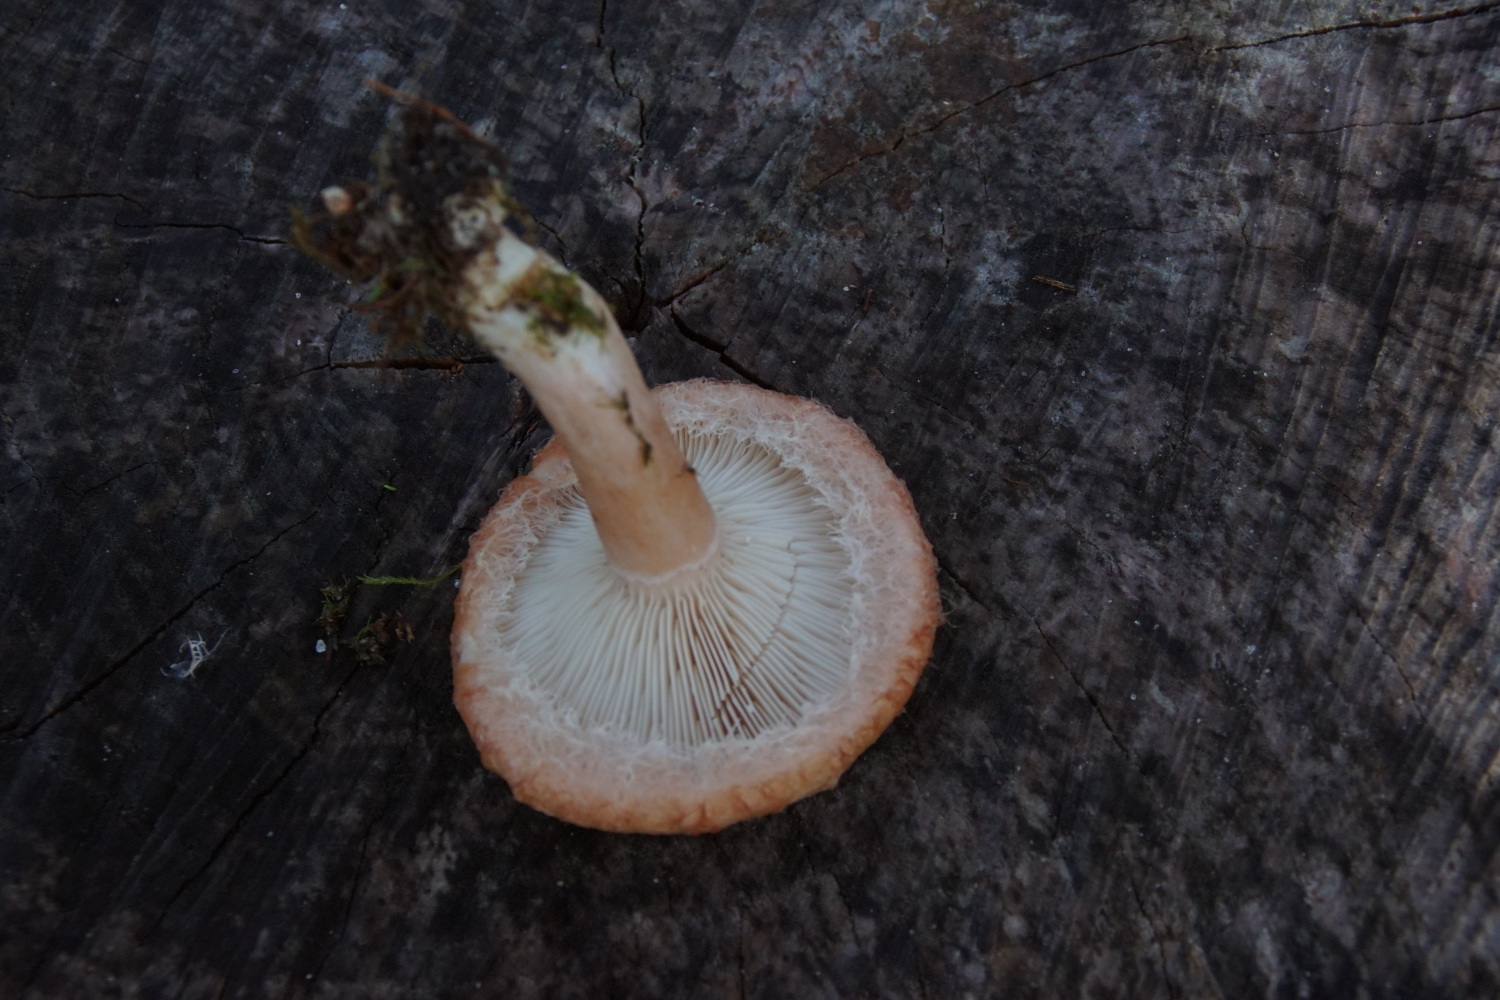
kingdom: Fungi
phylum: Basidiomycota
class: Agaricomycetes
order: Russulales
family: Russulaceae
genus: Lactarius
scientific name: Lactarius torminosus
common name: skægget mælkehat
